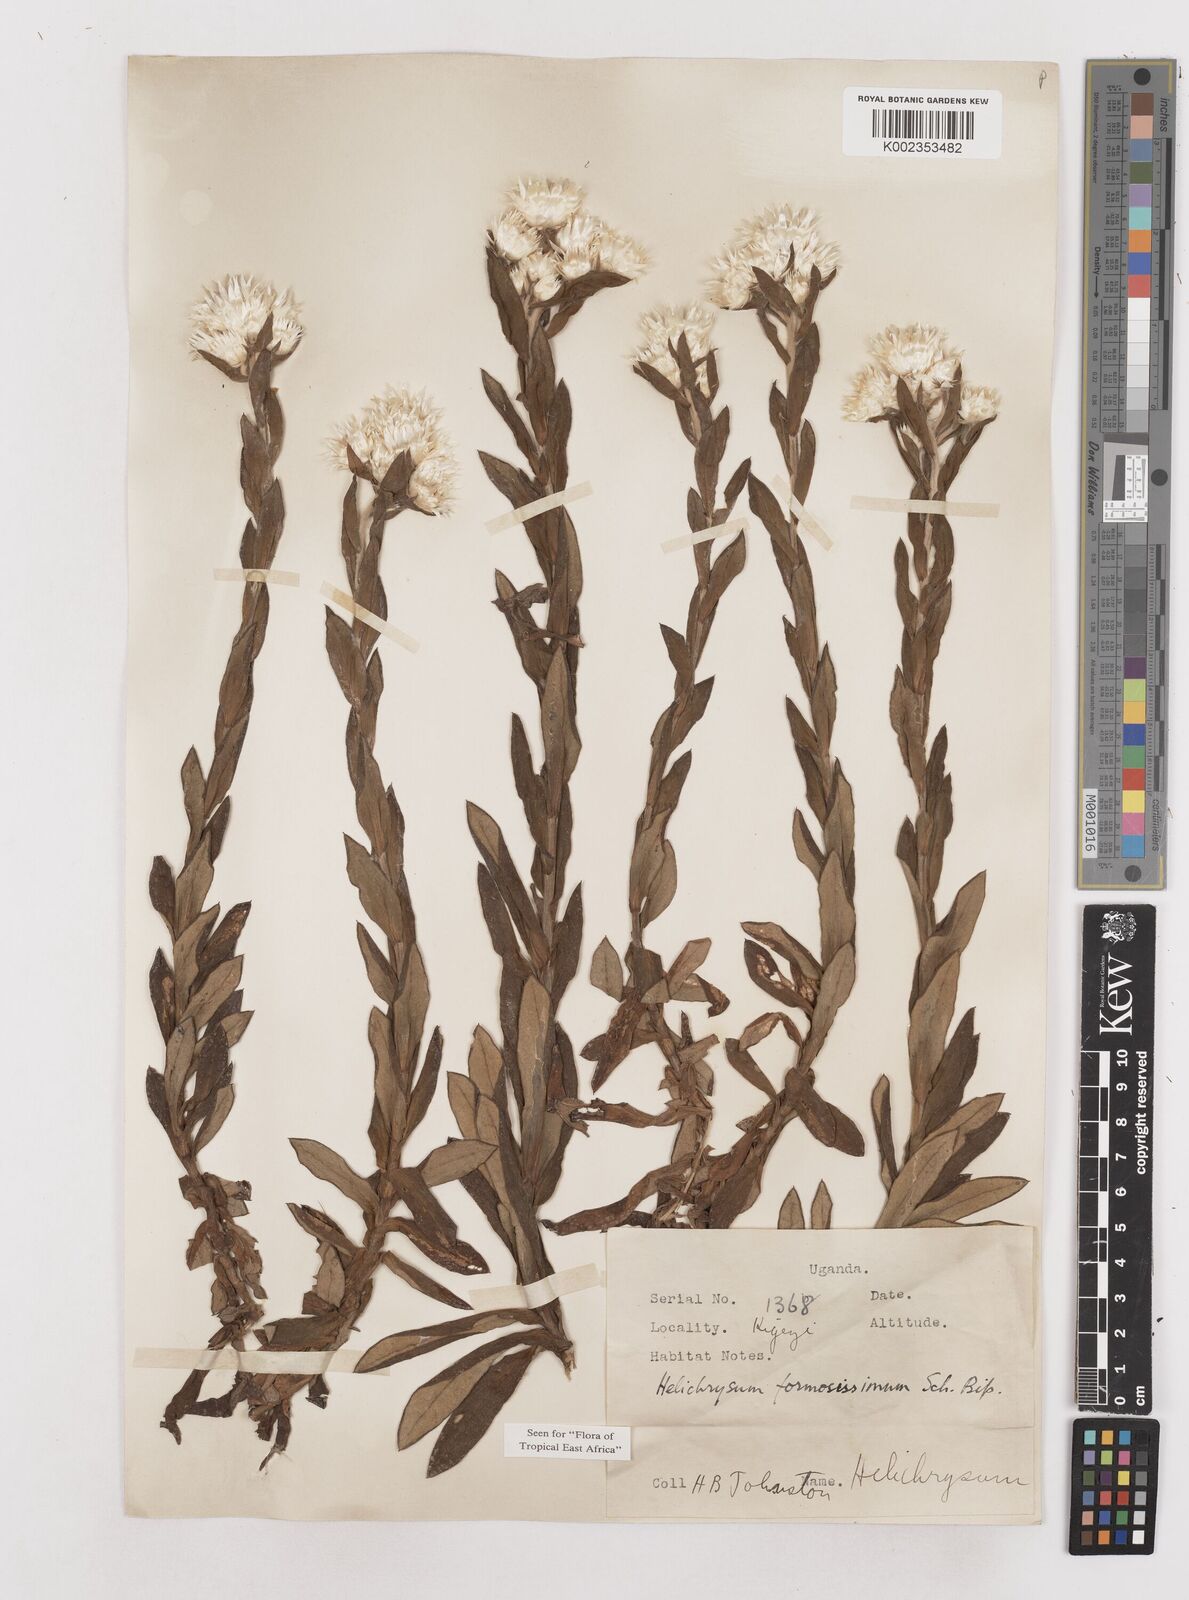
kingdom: Plantae
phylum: Tracheophyta
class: Magnoliopsida
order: Asterales
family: Asteraceae
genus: Helichrysum
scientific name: Helichrysum formosissimum
